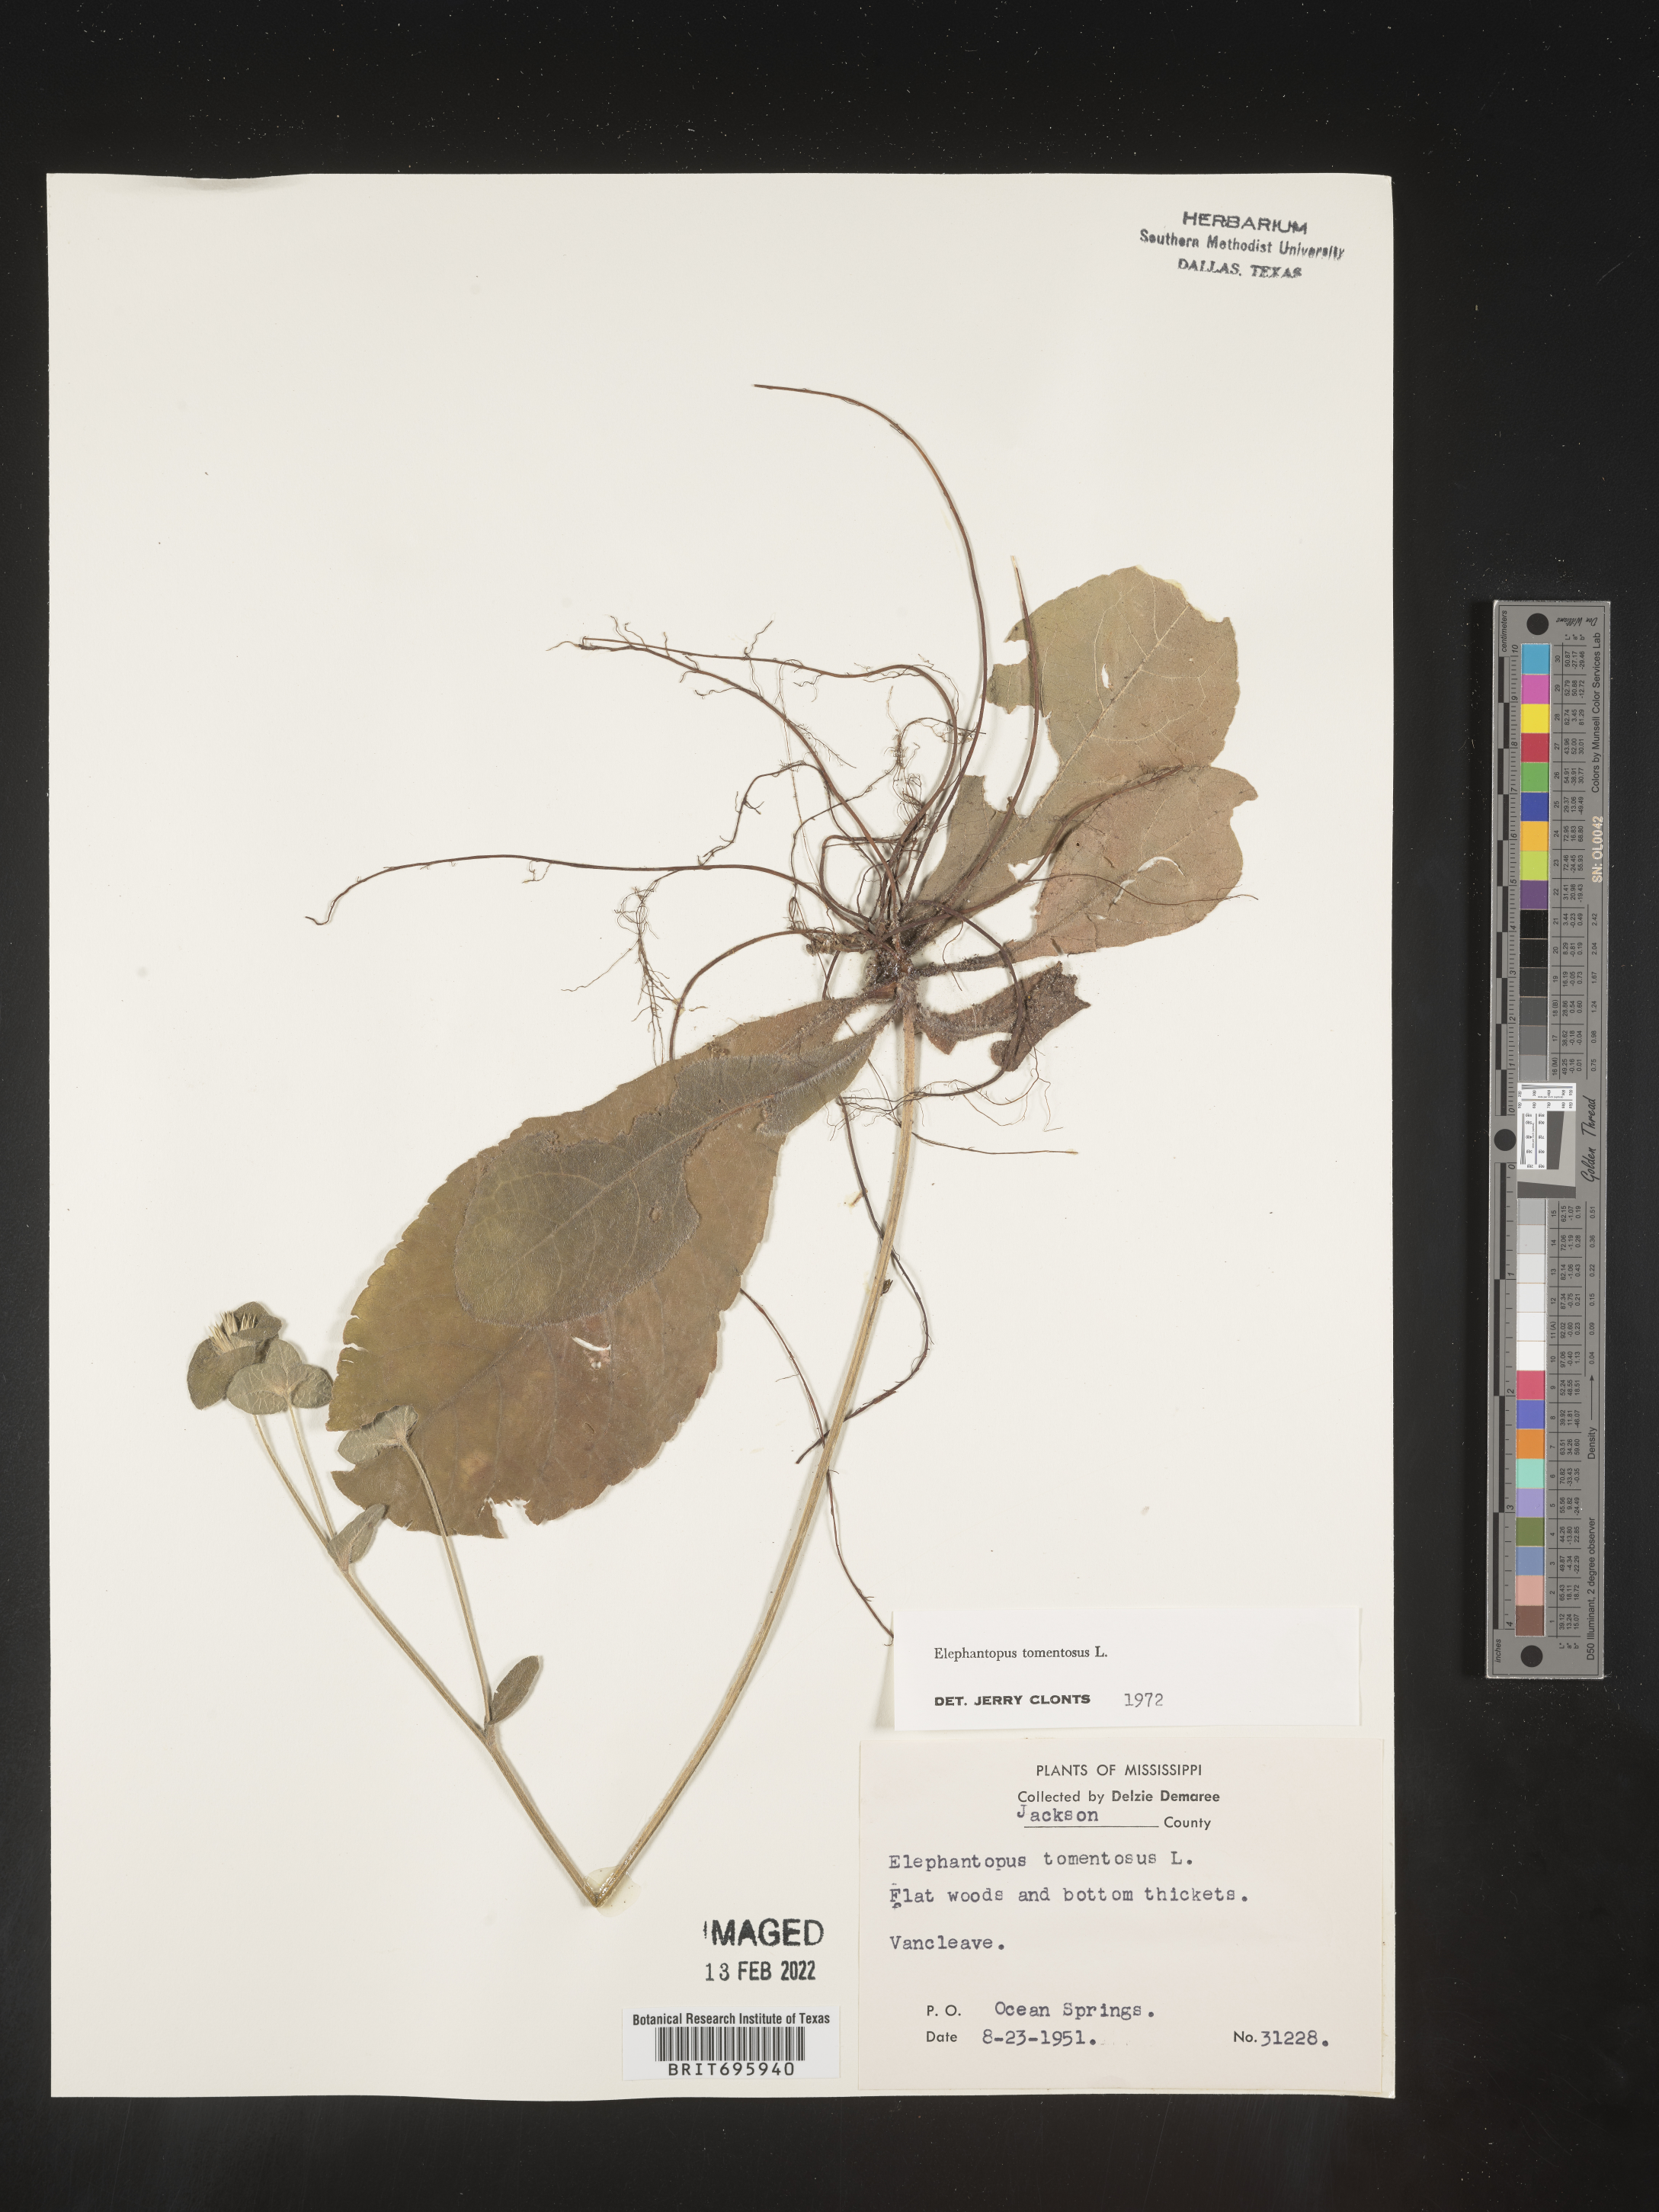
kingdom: Plantae
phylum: Tracheophyta
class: Magnoliopsida
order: Asterales
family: Asteraceae
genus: Elephantopus
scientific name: Elephantopus tomentosus
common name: Tobacco-weed
